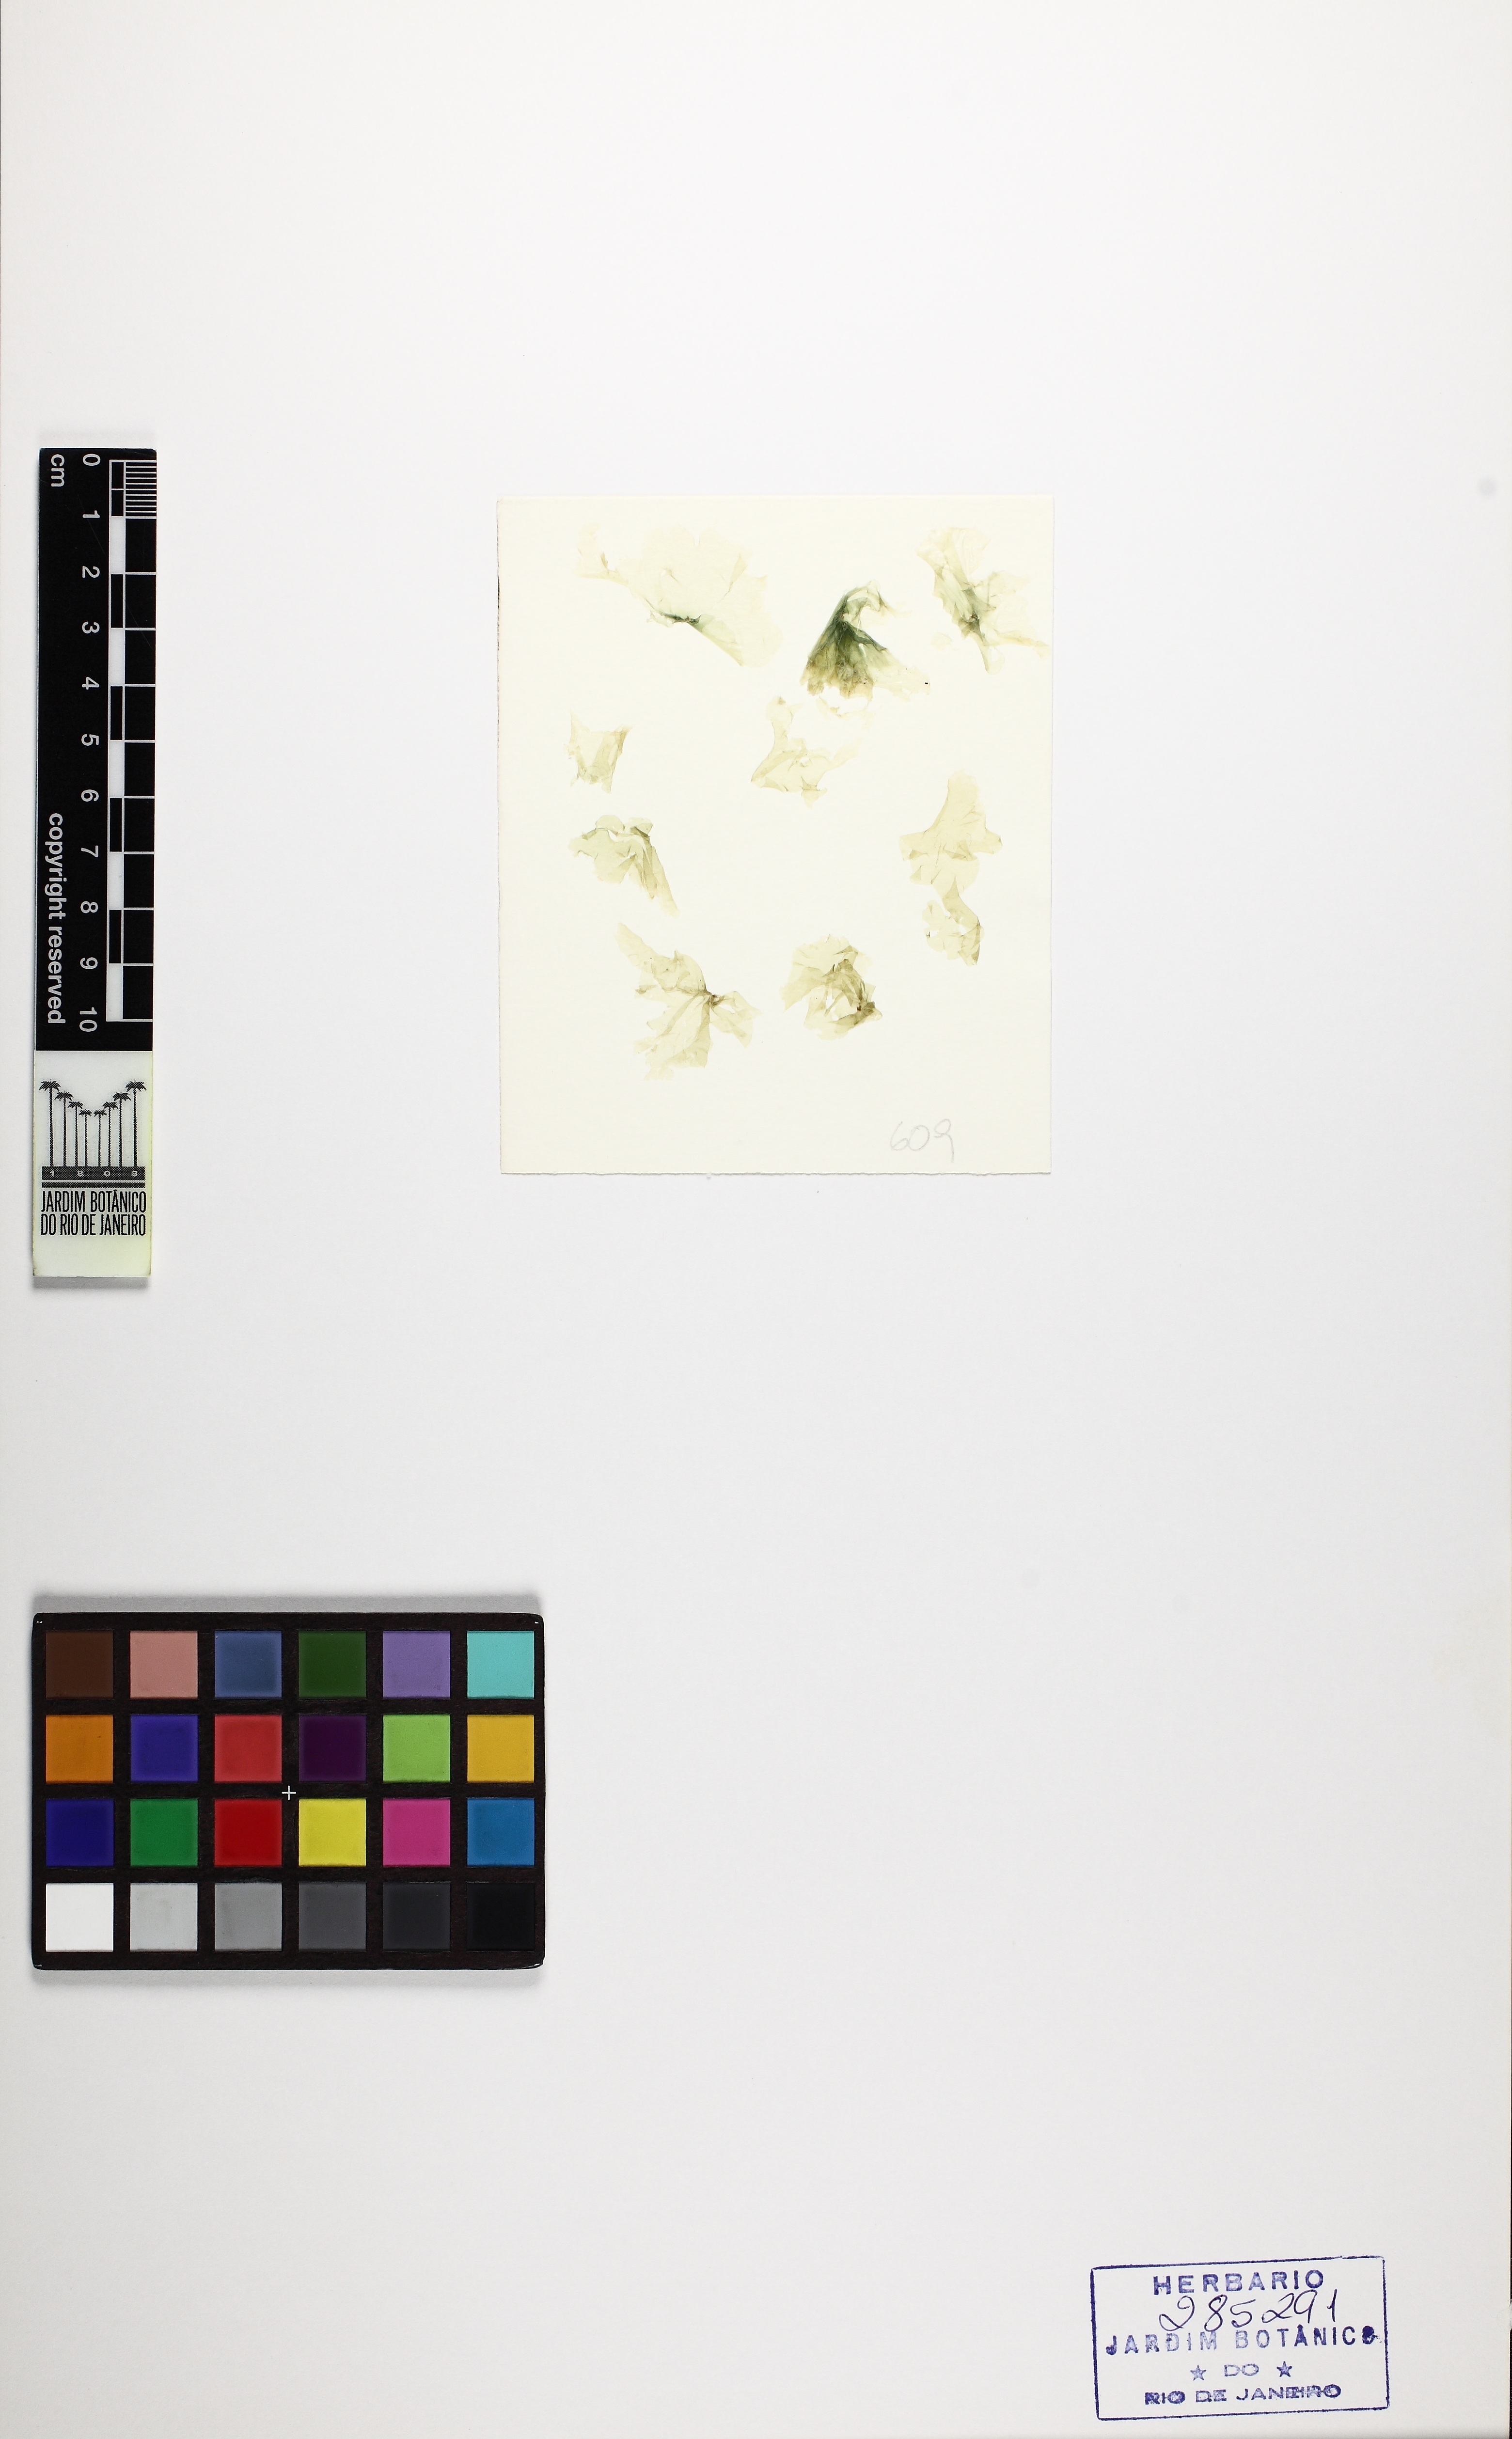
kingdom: Plantae
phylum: Rhodophyta
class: Bangiophyceae
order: Bangiales
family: Bangiaceae
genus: Pyropia
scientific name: Pyropia spiralis
